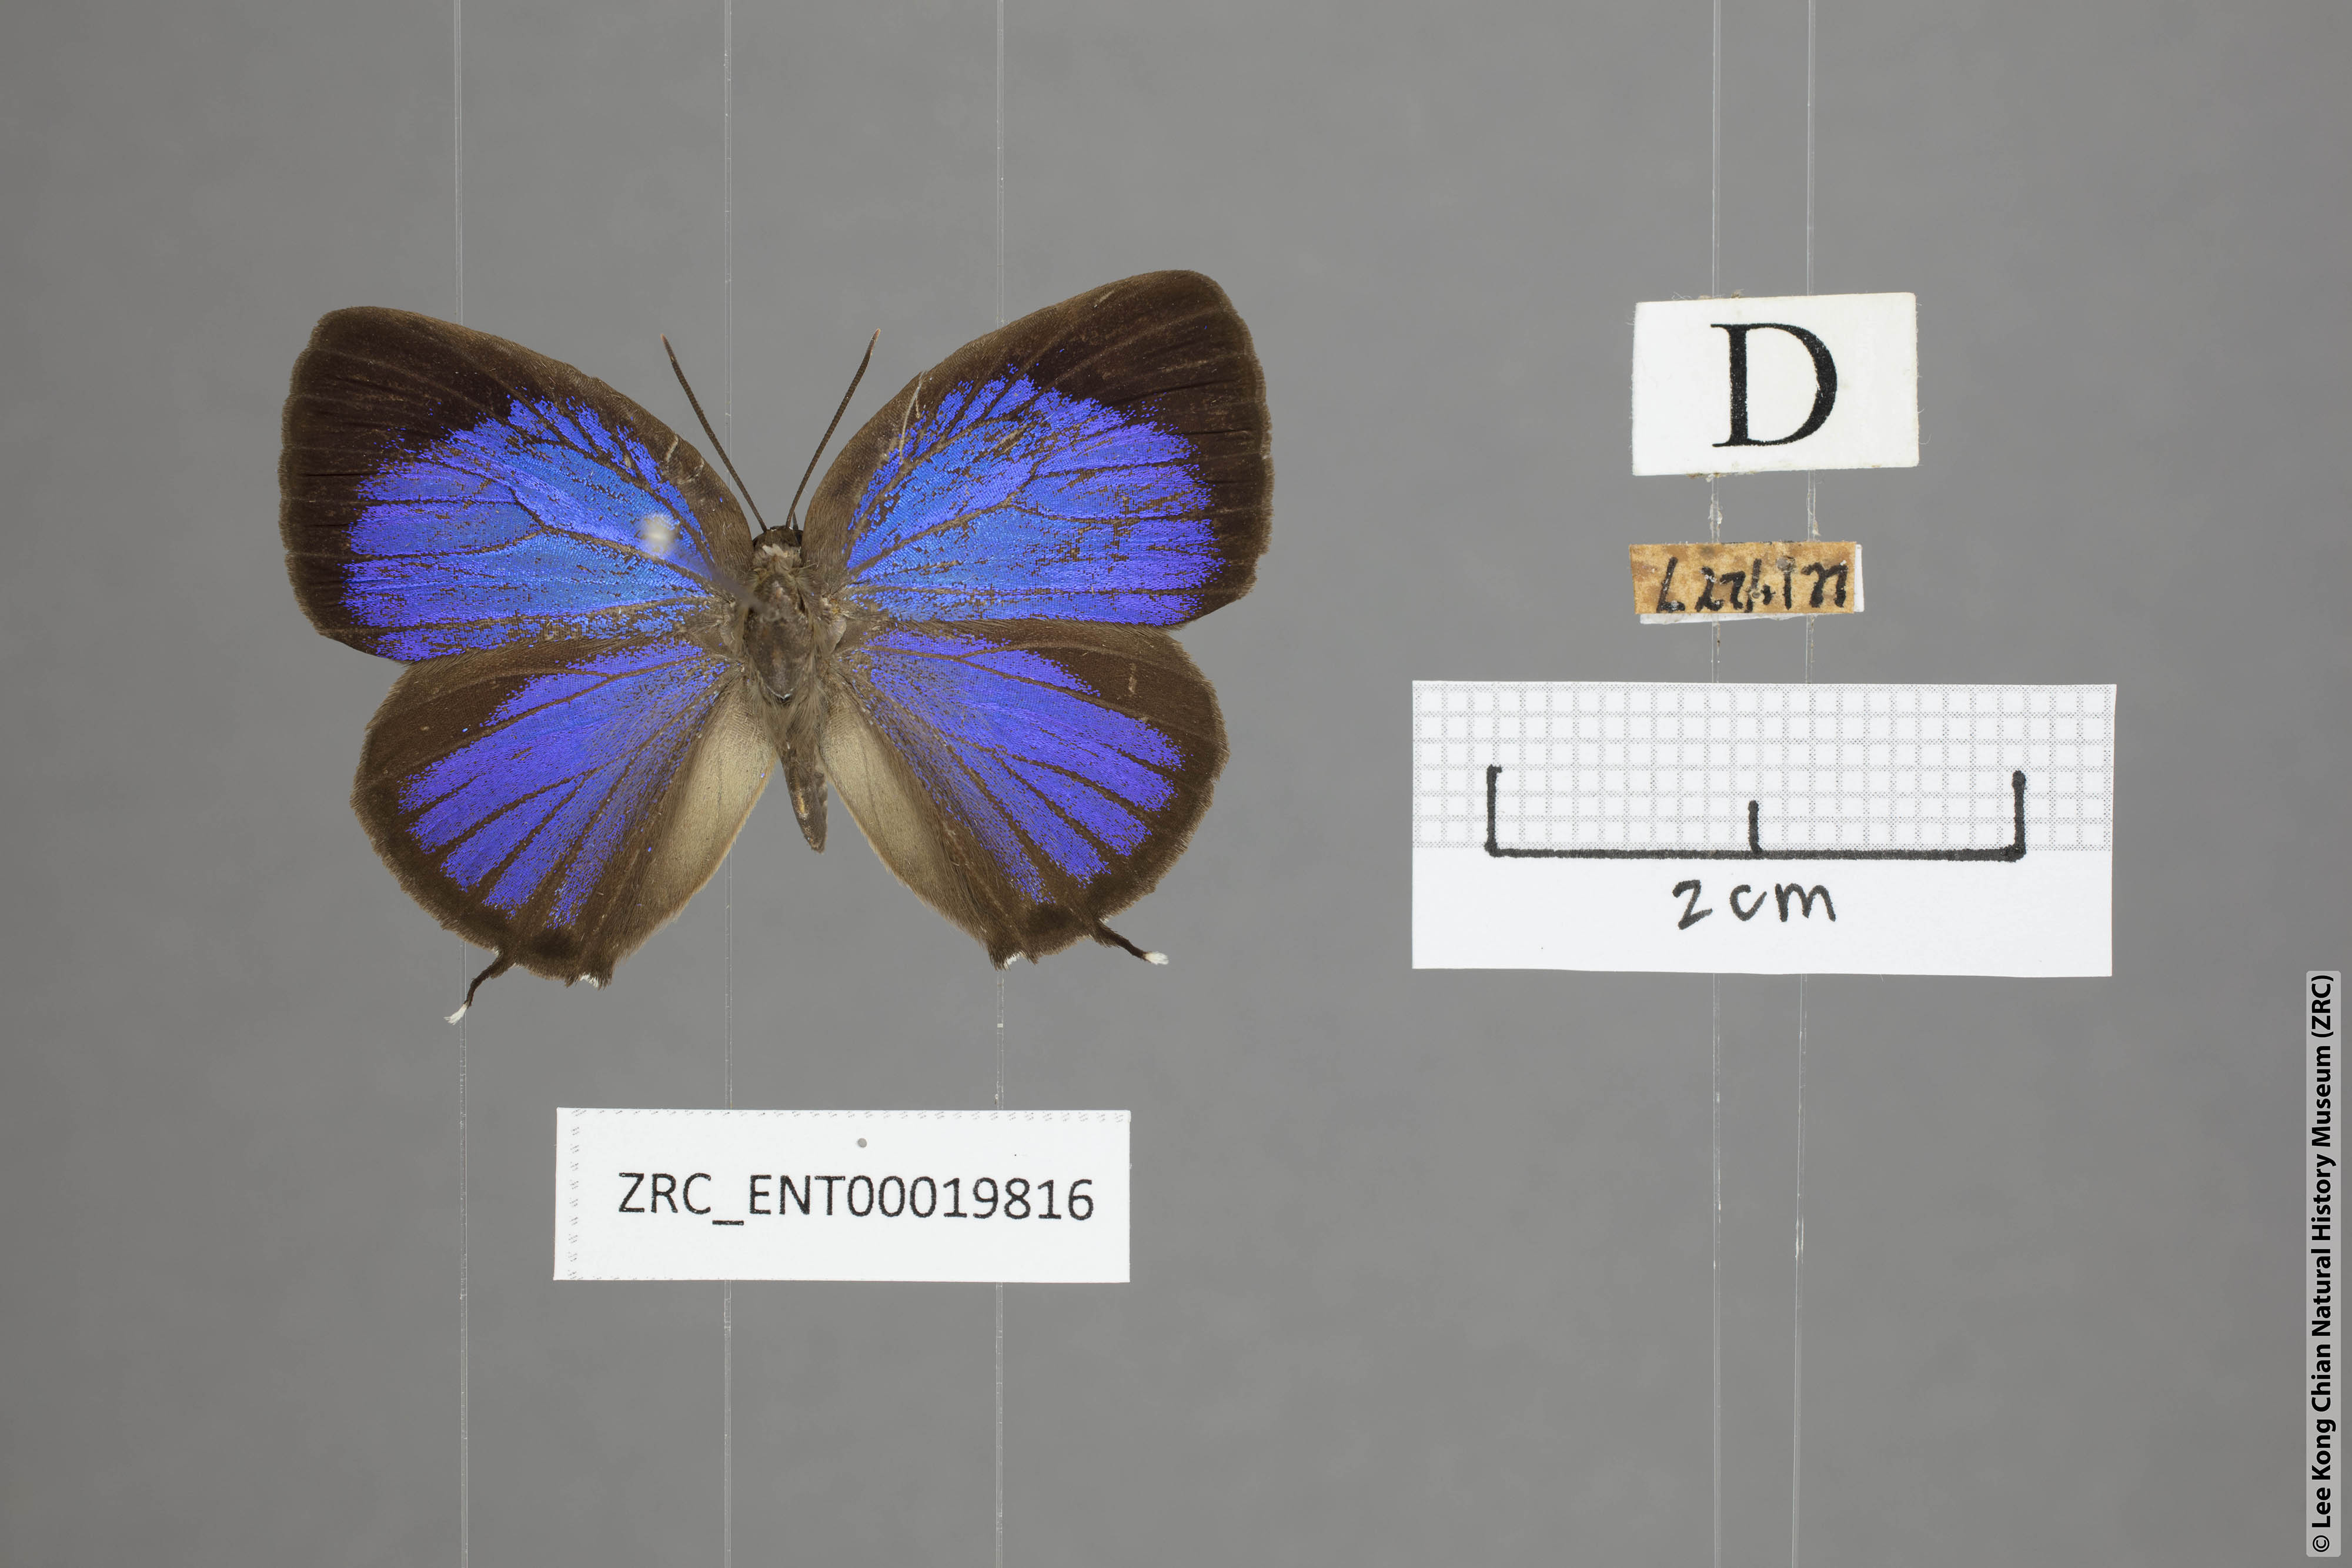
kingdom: Animalia
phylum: Arthropoda
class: Insecta
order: Lepidoptera
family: Lycaenidae
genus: Arhopala
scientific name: Arhopala pseudomuta
